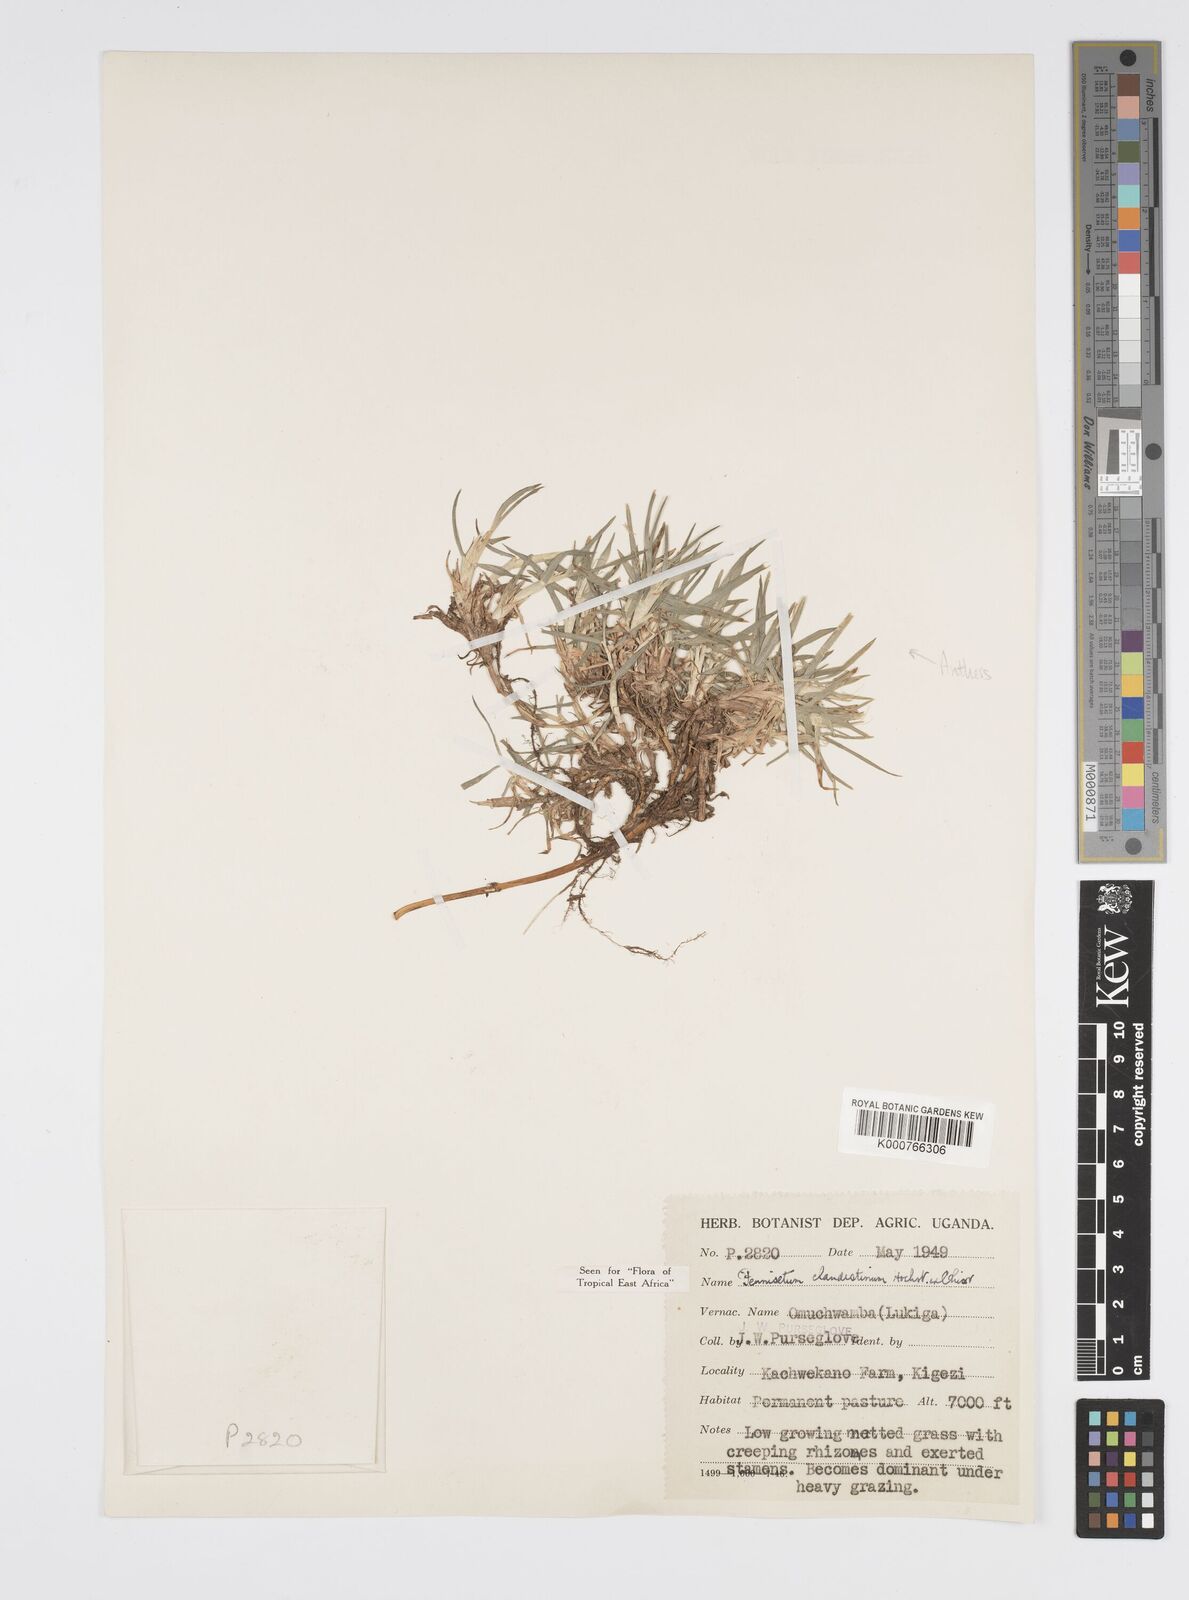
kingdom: Plantae
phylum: Tracheophyta
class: Liliopsida
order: Poales
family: Poaceae
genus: Cenchrus
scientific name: Cenchrus clandestinus
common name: Kikuyugrass
